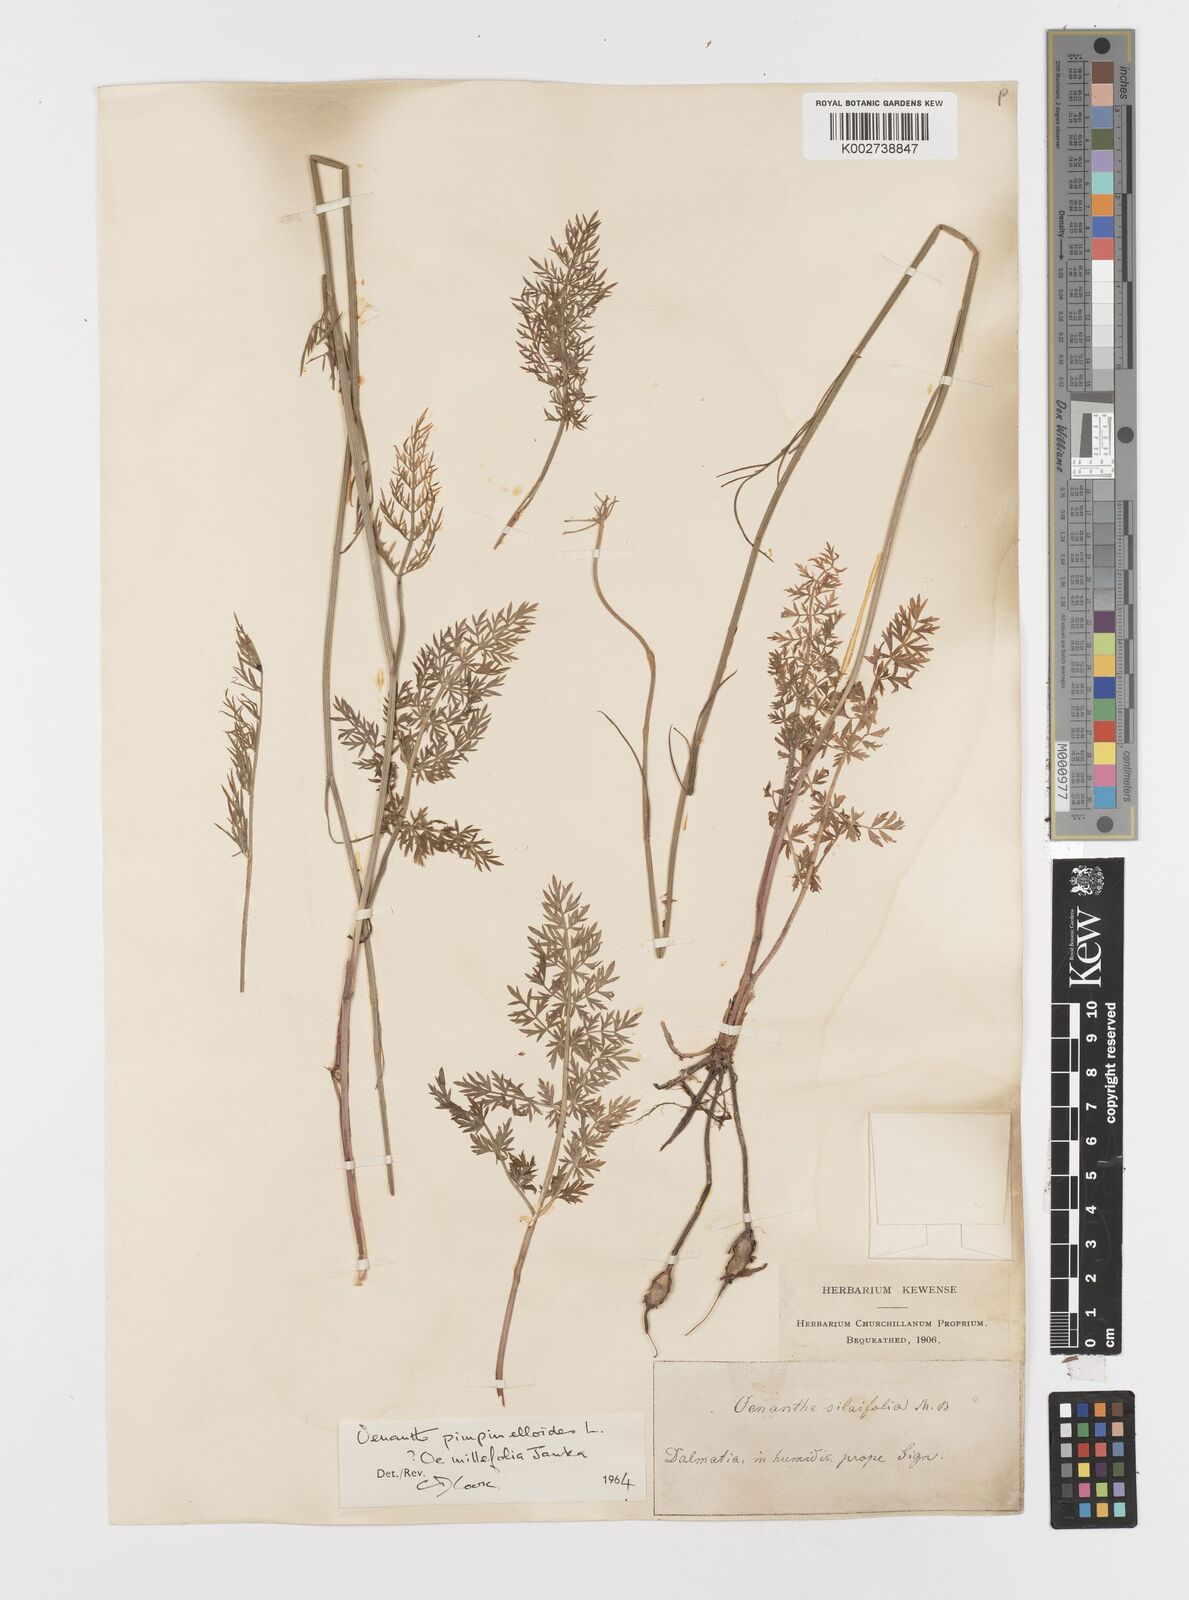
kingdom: Plantae
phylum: Tracheophyta
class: Magnoliopsida
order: Apiales
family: Apiaceae
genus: Oenanthe
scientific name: Oenanthe silaifolia
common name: Narrow-leaved water-dropwort
